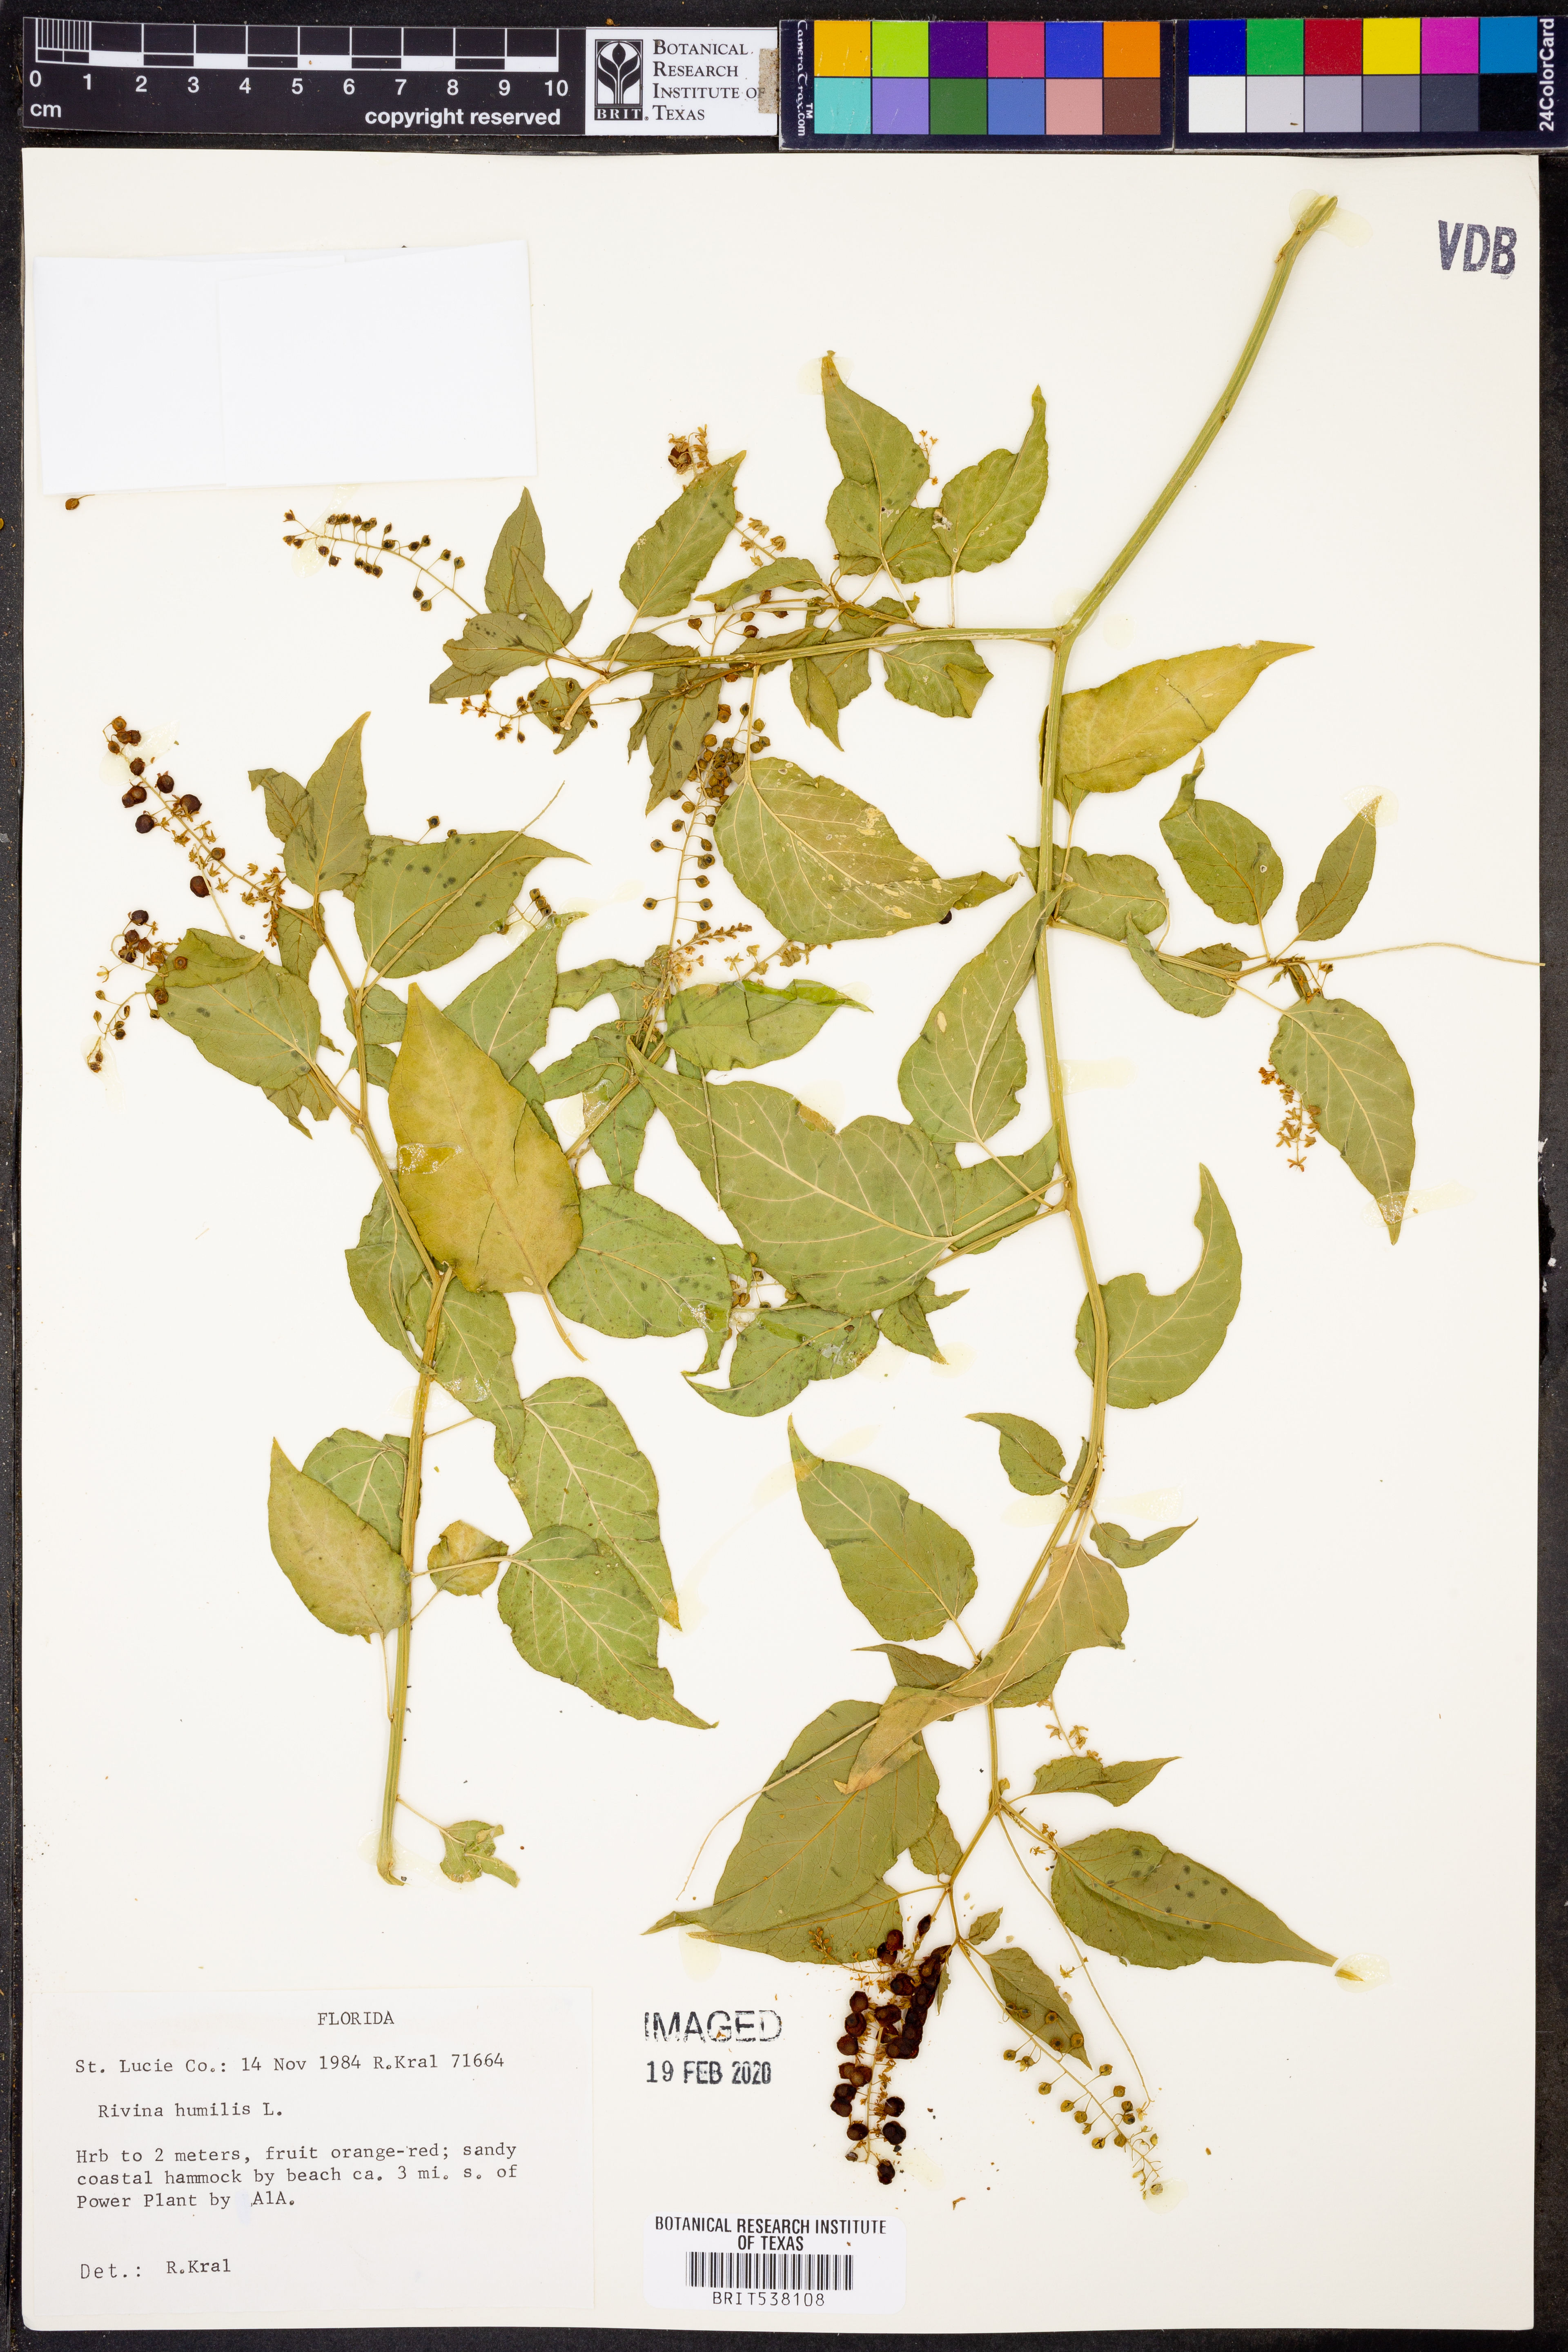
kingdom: Plantae
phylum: Tracheophyta
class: Magnoliopsida
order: Caryophyllales
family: Phytolaccaceae
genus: Rivina
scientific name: Rivina humilis
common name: Rougeplant
